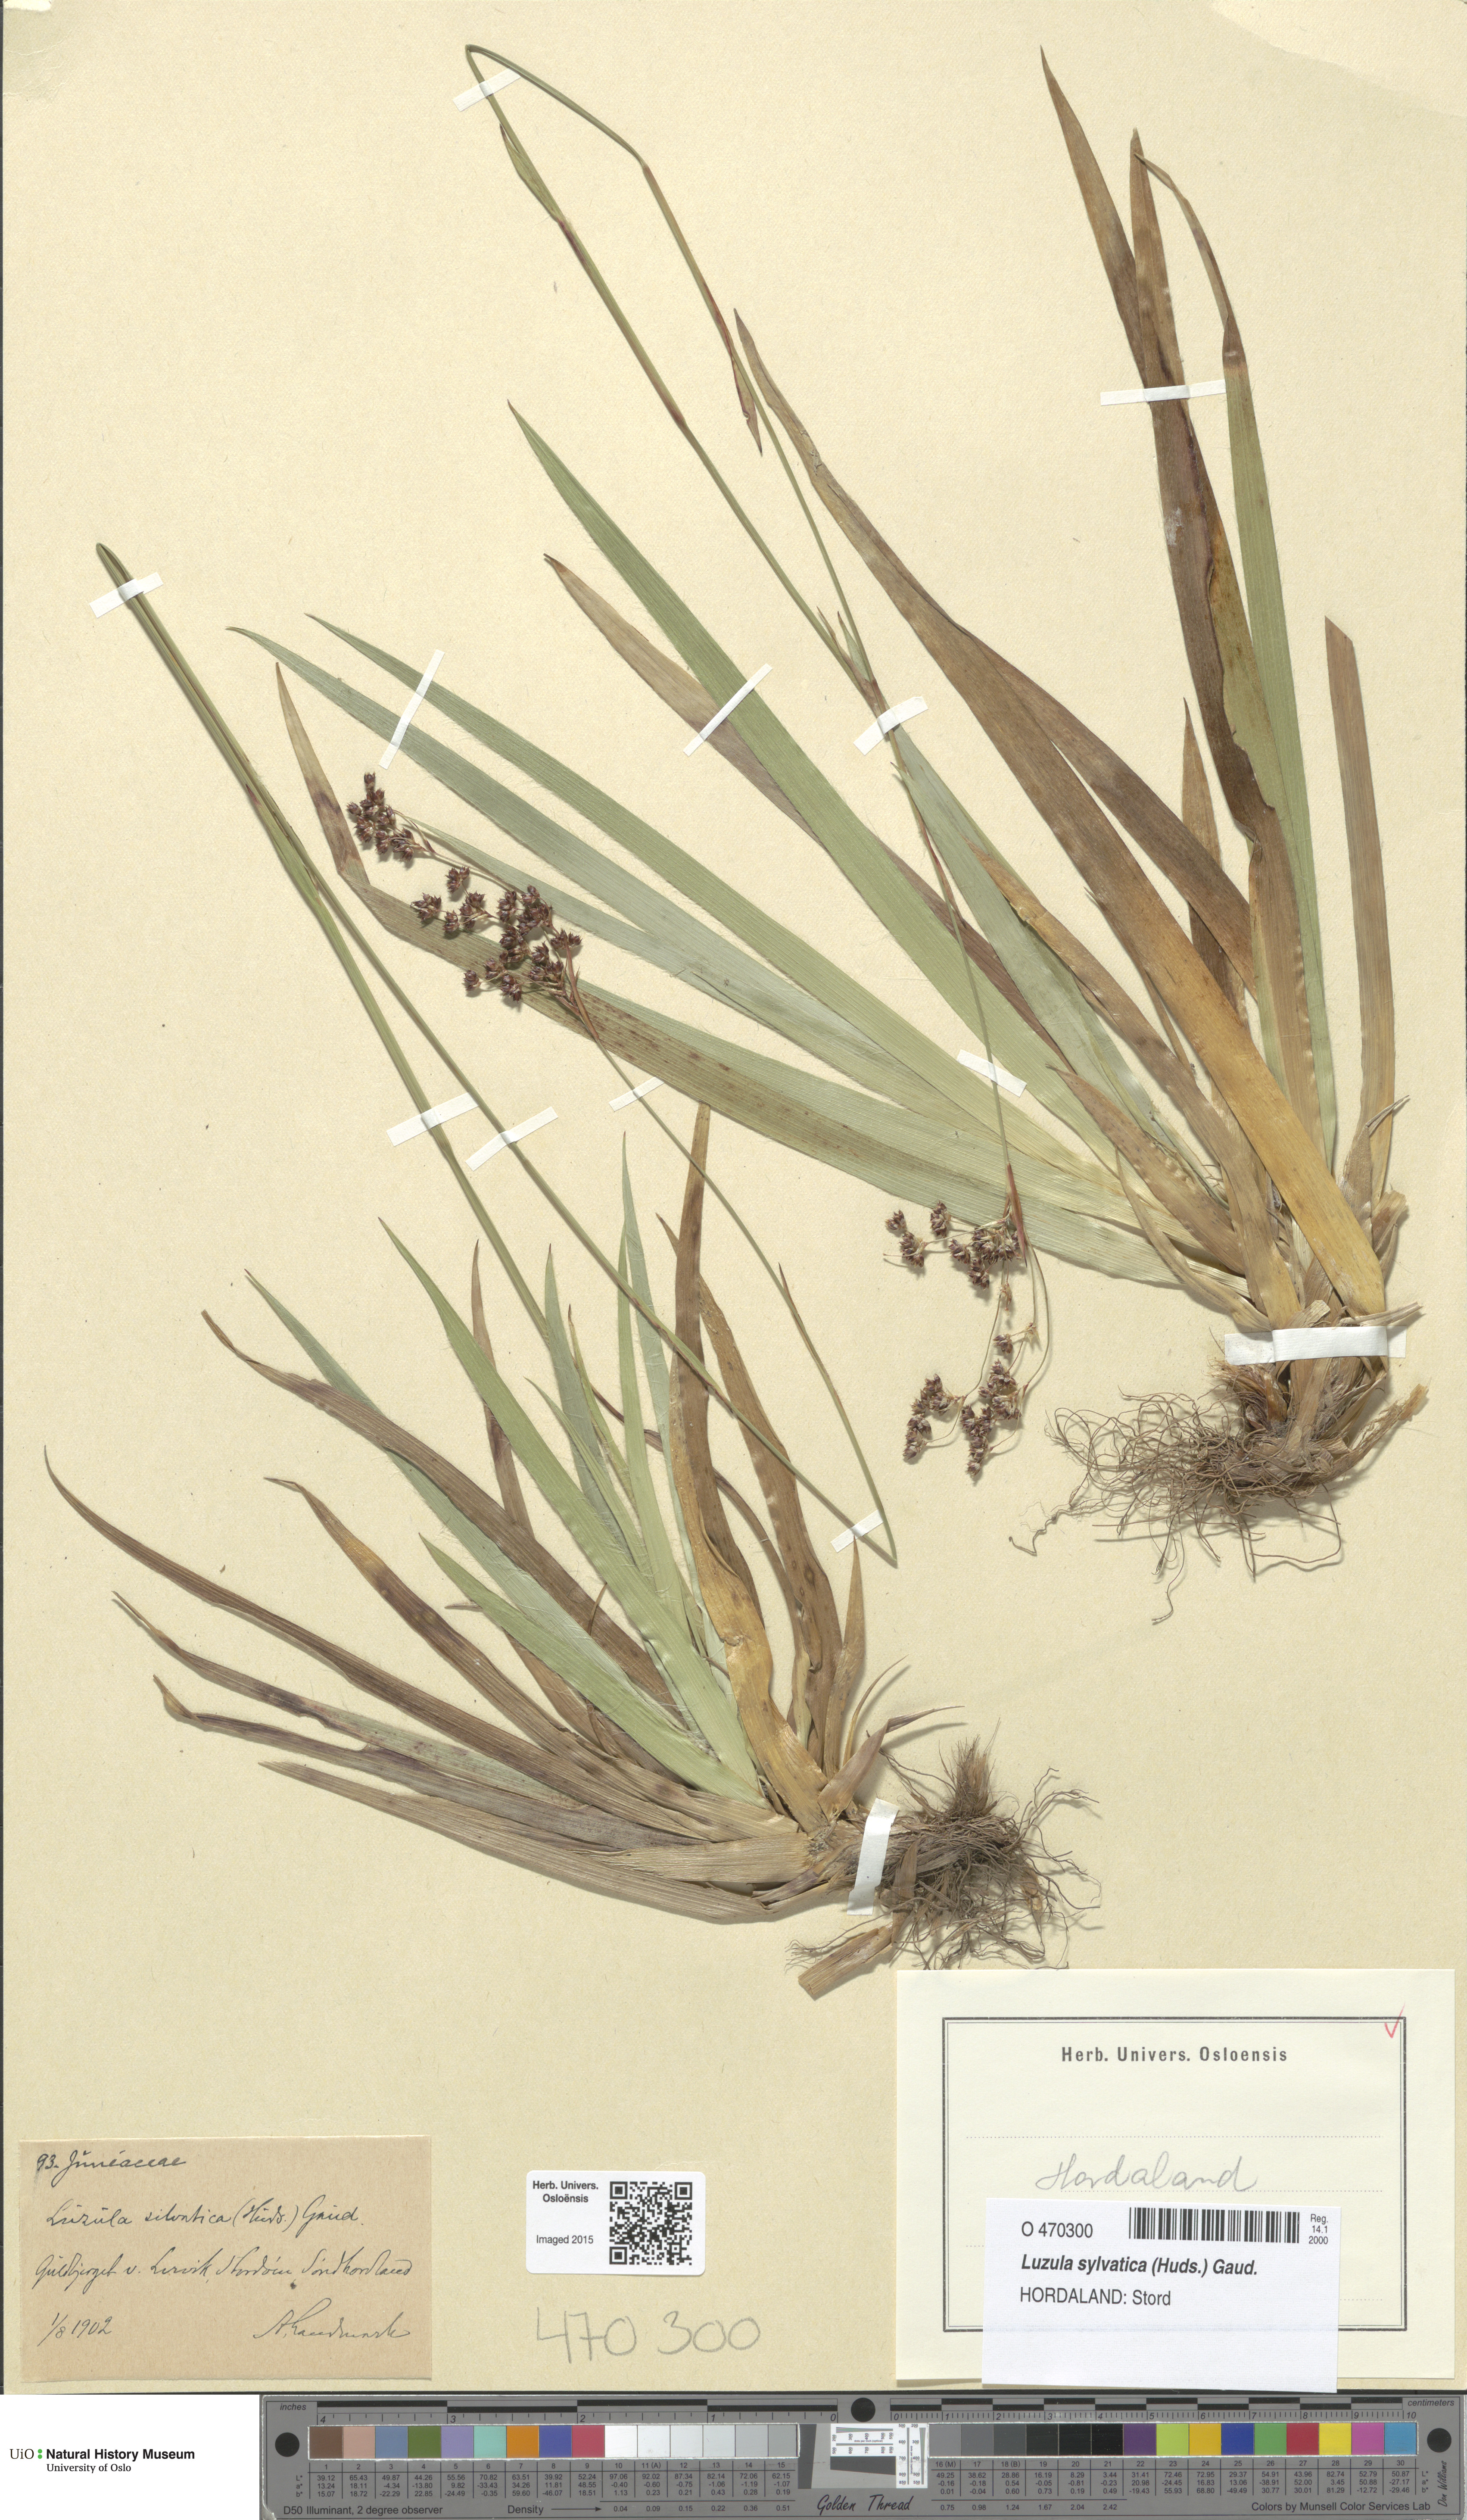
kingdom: Plantae
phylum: Tracheophyta
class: Liliopsida
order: Poales
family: Juncaceae
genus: Luzula
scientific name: Luzula sylvatica
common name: Great wood-rush
